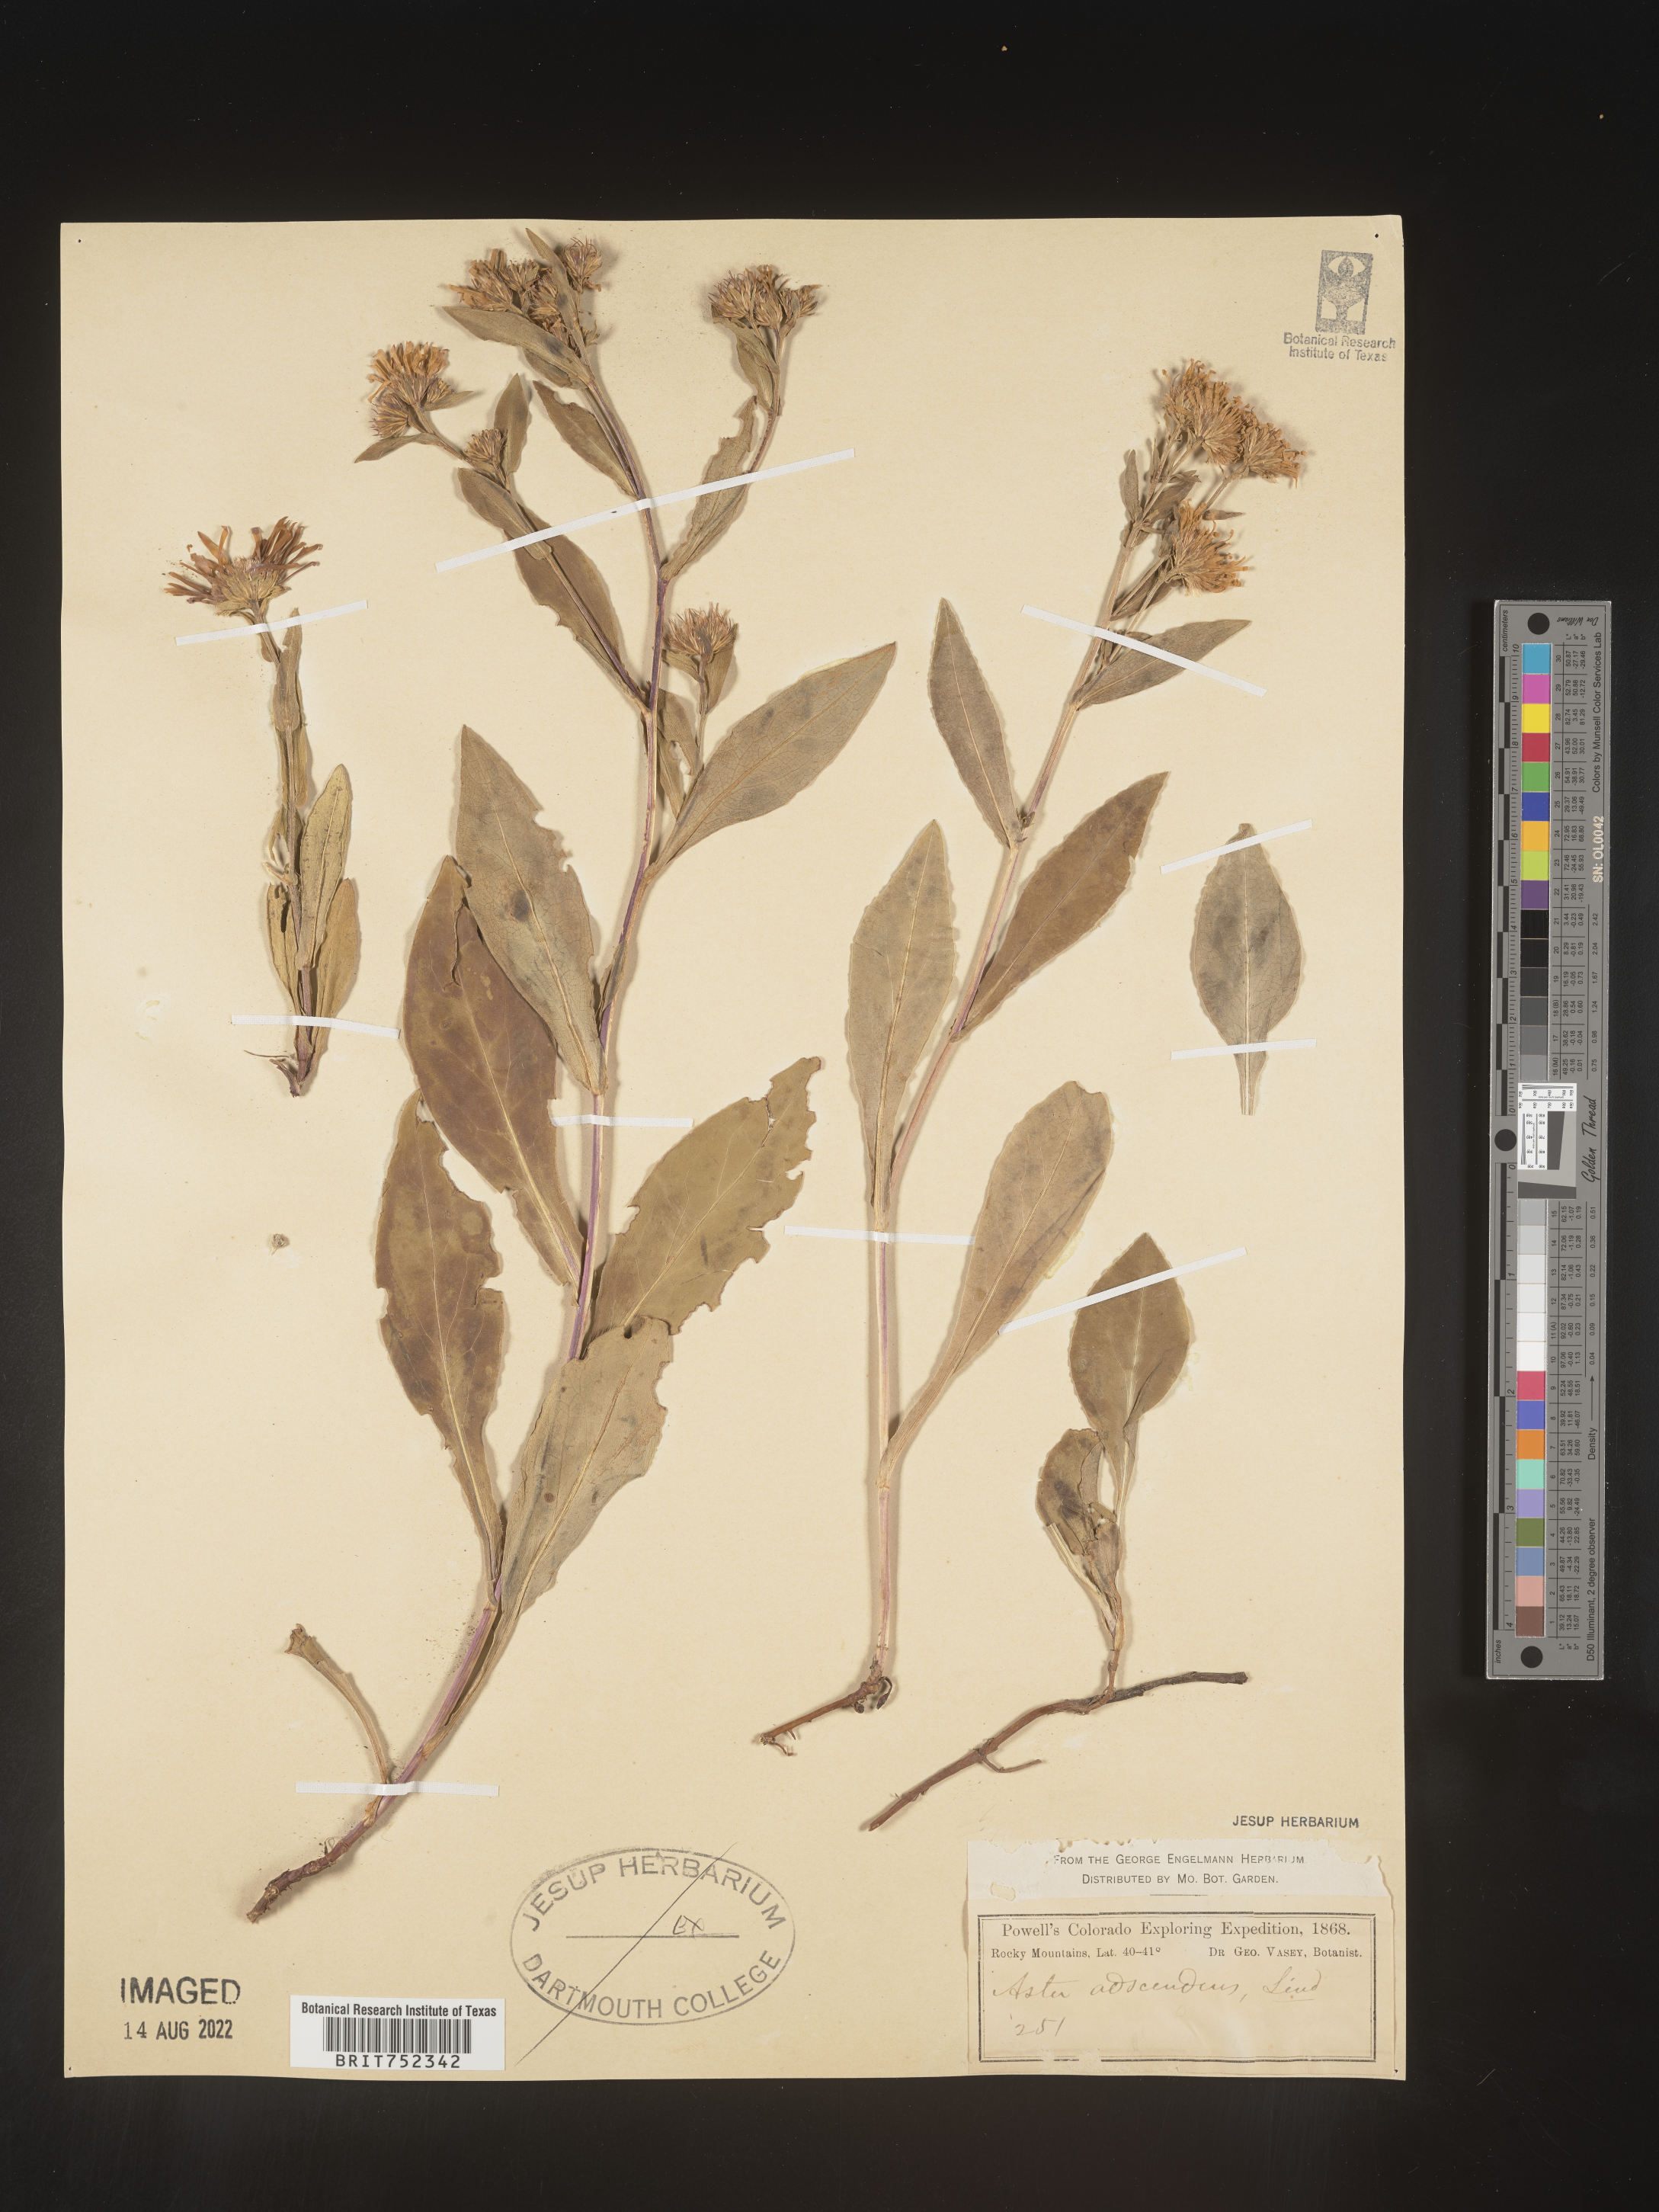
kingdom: Plantae
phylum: Tracheophyta
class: Magnoliopsida
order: Asterales
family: Asteraceae
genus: Symphyotrichum
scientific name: Symphyotrichum foliaceum
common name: Leafy aster
